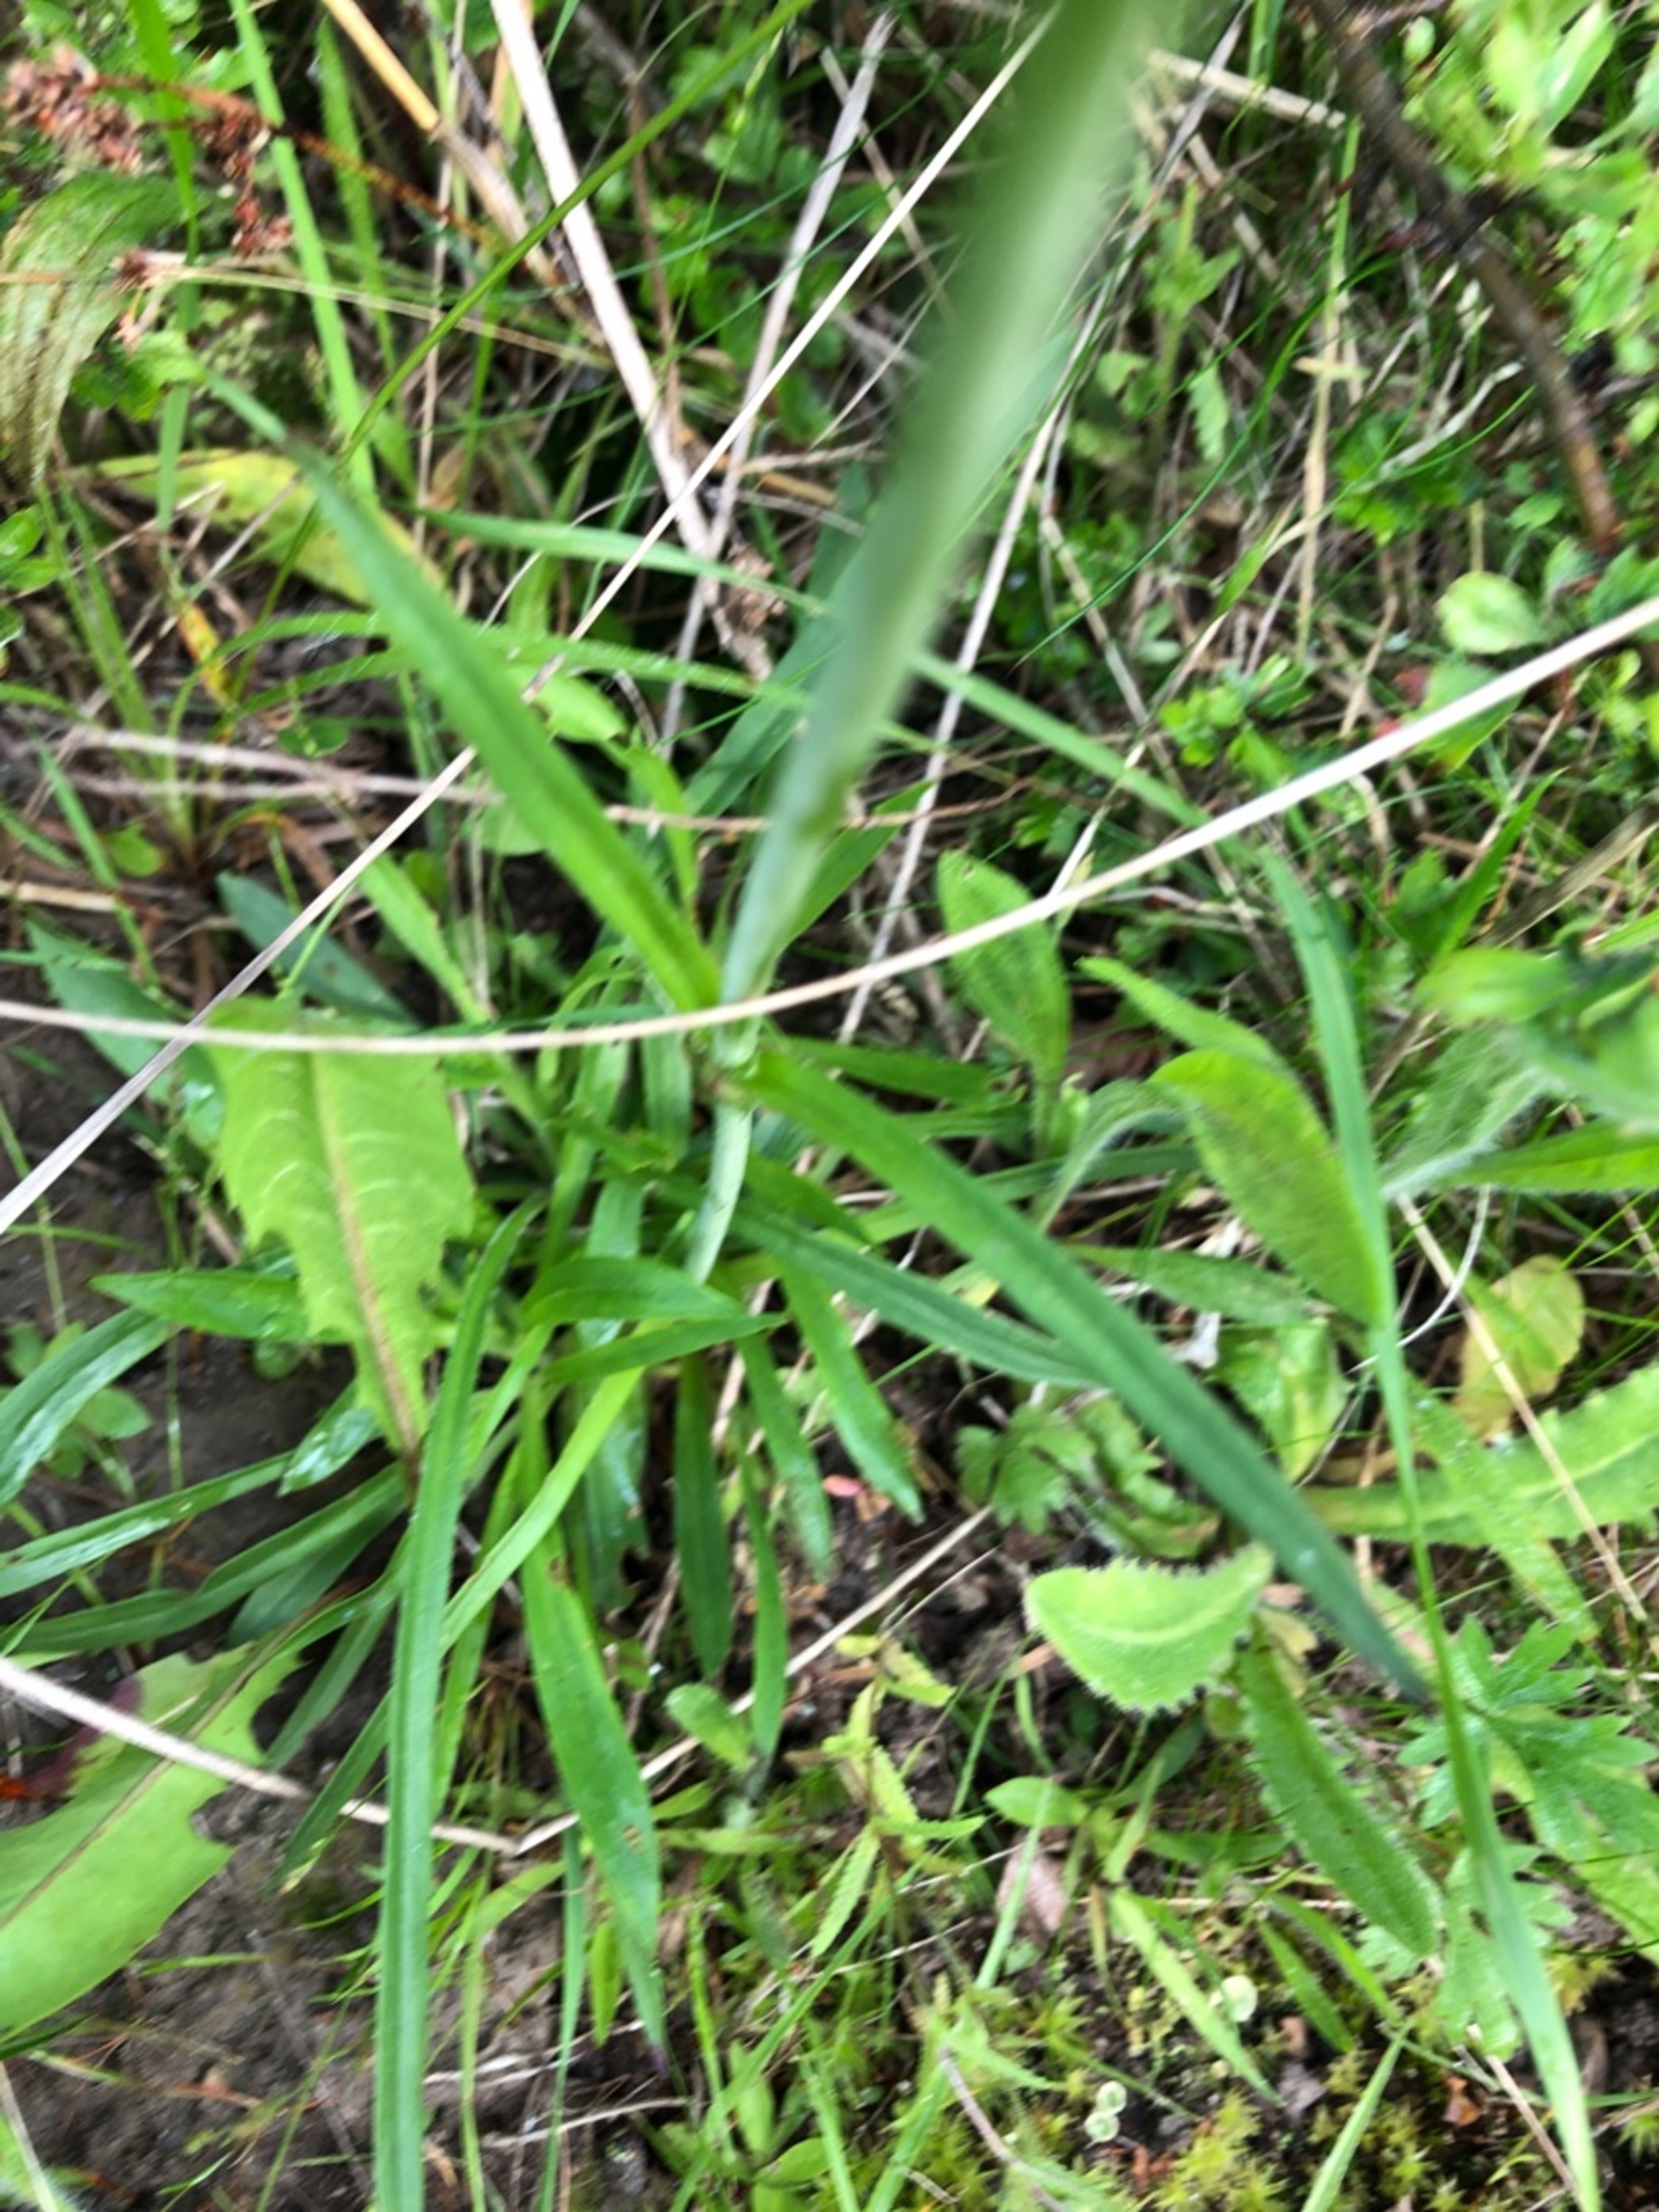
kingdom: Plantae
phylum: Tracheophyta
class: Magnoliopsida
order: Caryophyllales
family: Caryophyllaceae
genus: Viscaria
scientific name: Viscaria vulgaris
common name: Tjærenellike
